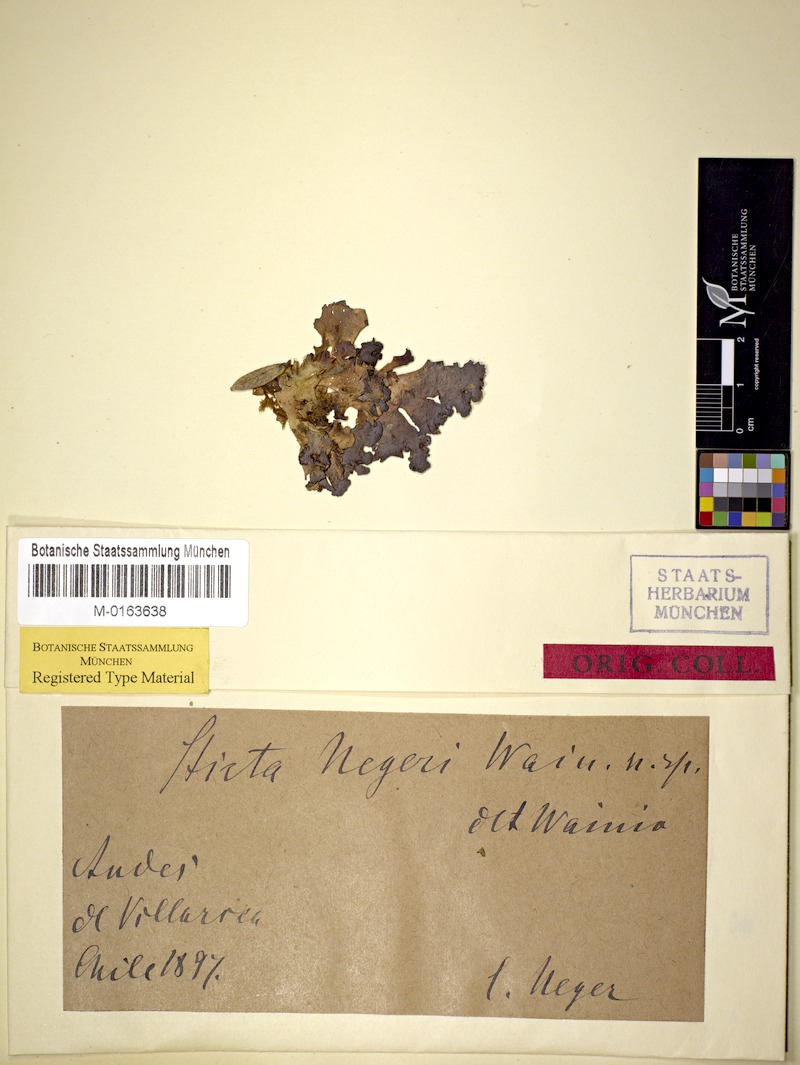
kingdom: Fungi
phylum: Ascomycota
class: Lecanoromycetes
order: Peltigerales
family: Lobariaceae
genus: Sticta
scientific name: Sticta gaudichaldia
